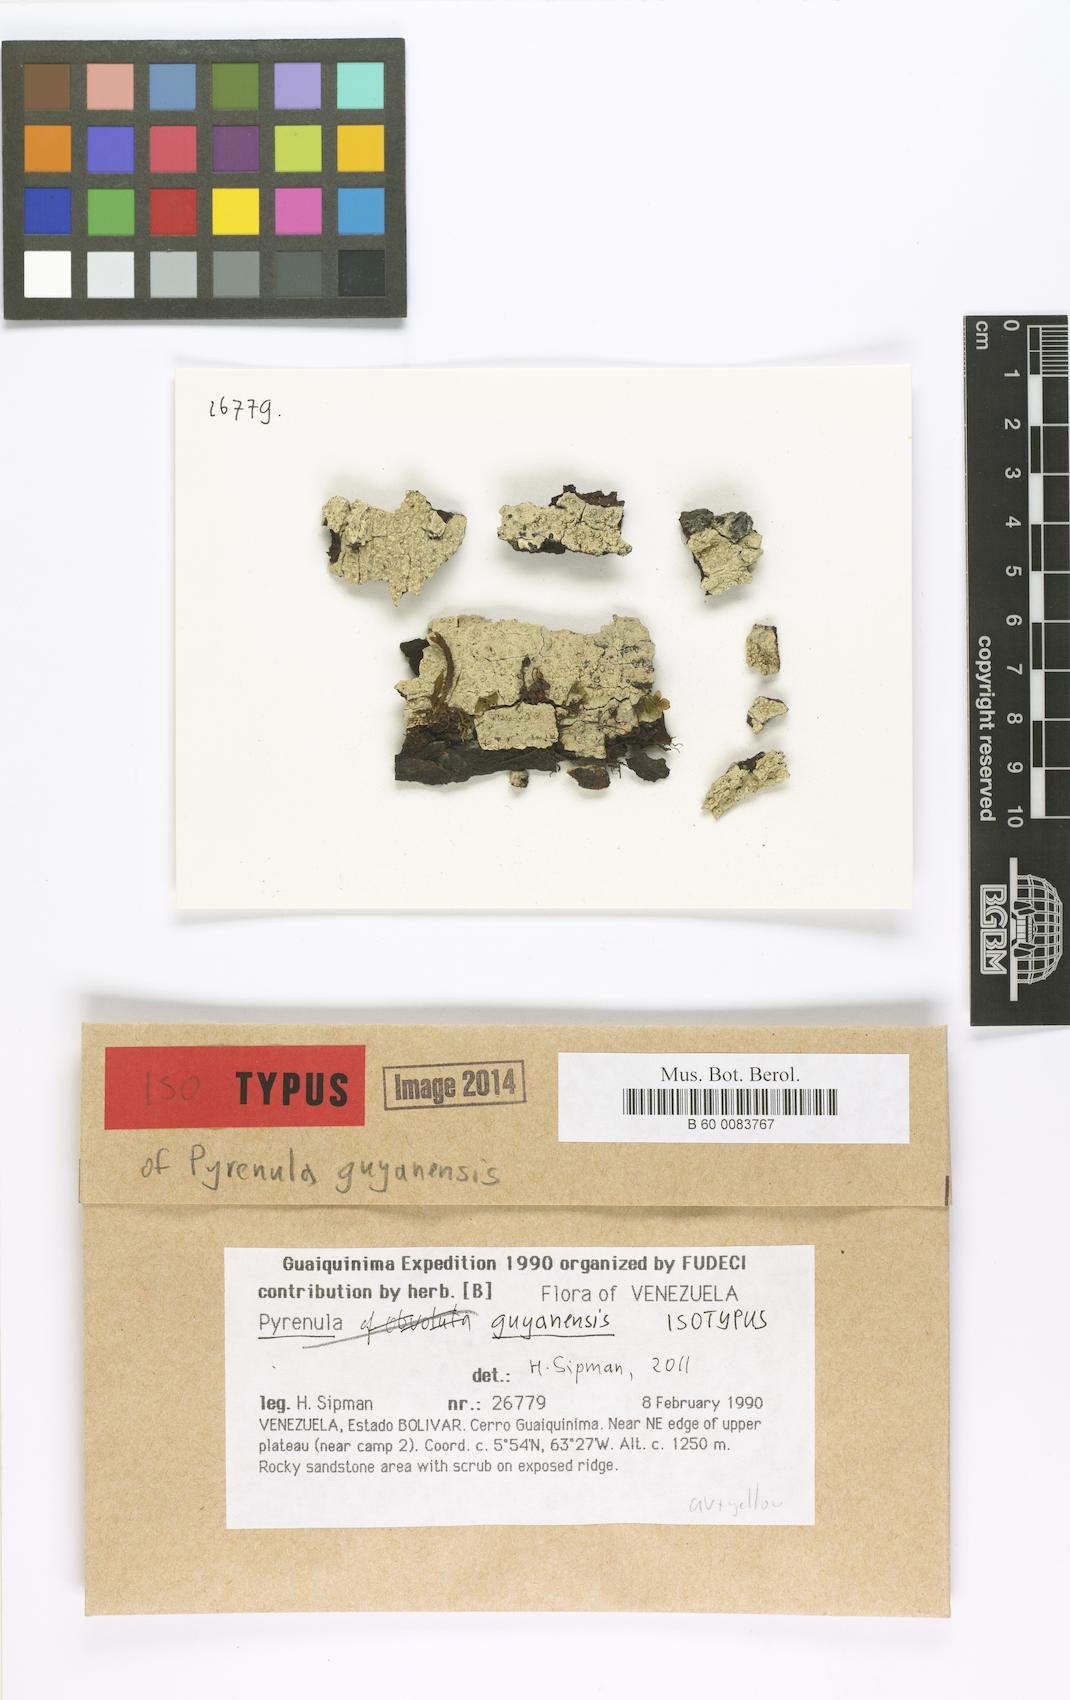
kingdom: Fungi
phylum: Ascomycota
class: Eurotiomycetes
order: Pyrenulales
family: Pyrenulaceae
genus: Pyrenula
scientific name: Pyrenula guyanensis
